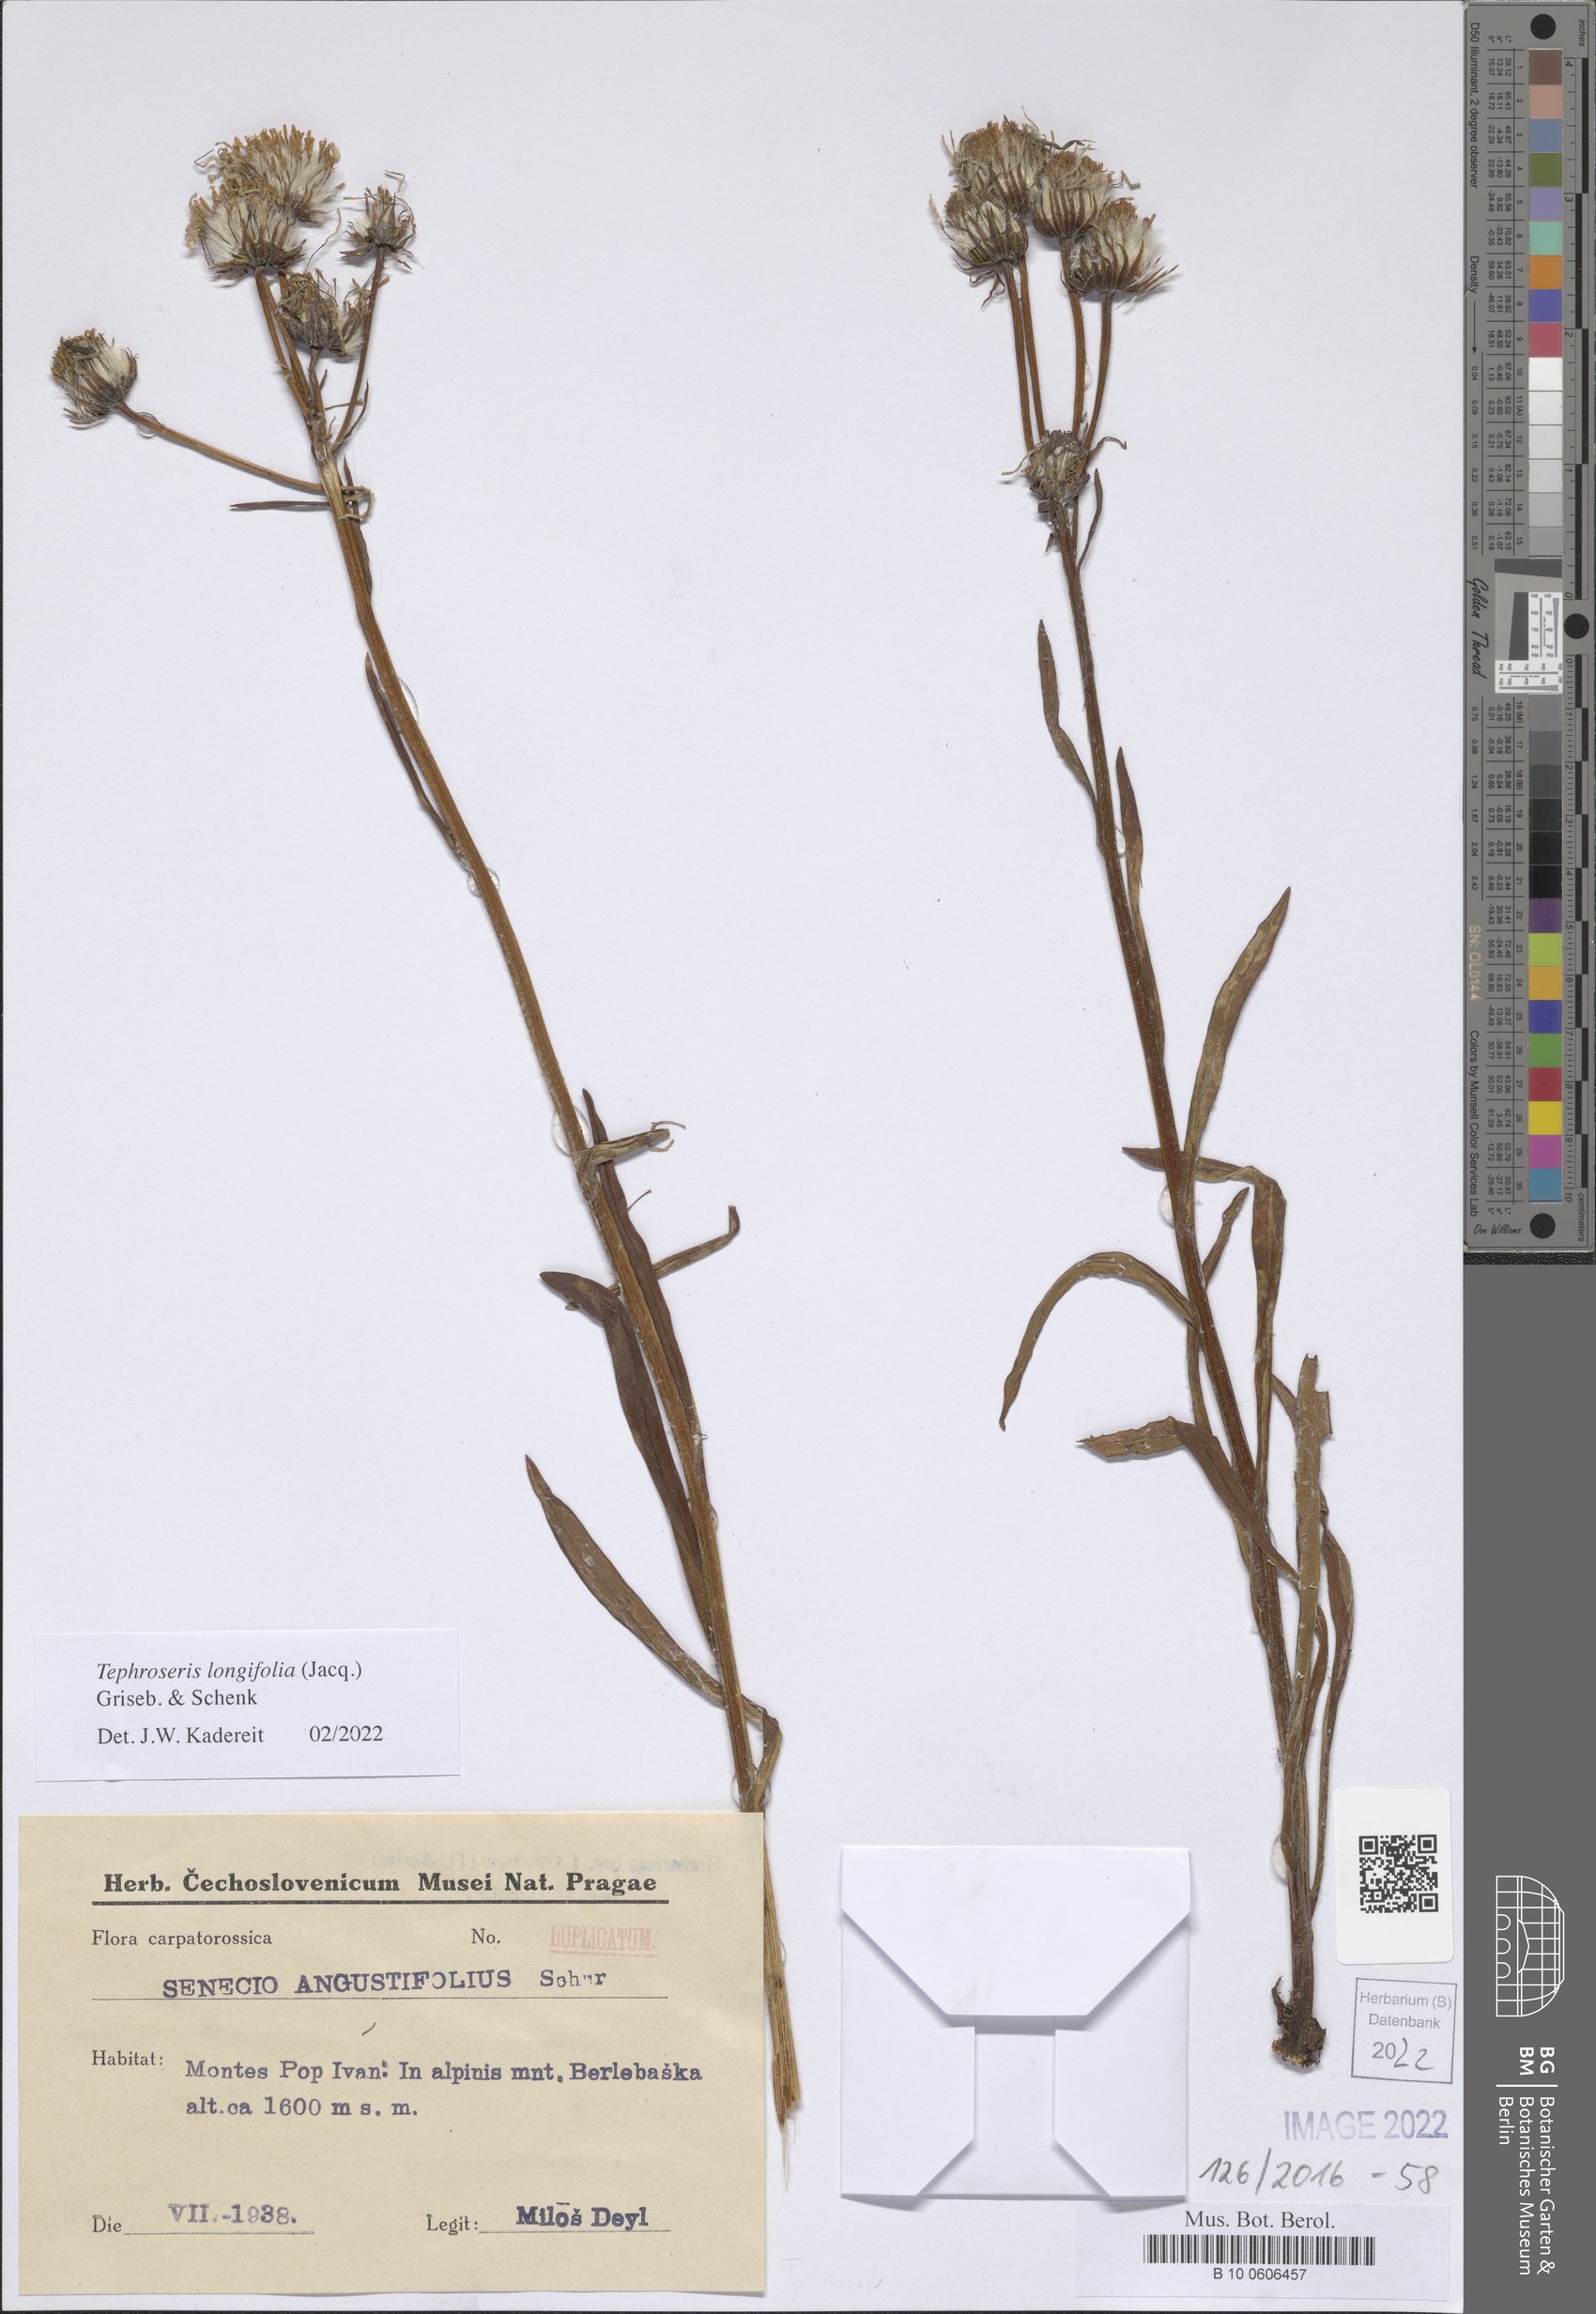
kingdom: Plantae
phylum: Tracheophyta
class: Magnoliopsida
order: Asterales
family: Asteraceae
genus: Tephroseris
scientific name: Tephroseris longifolia
